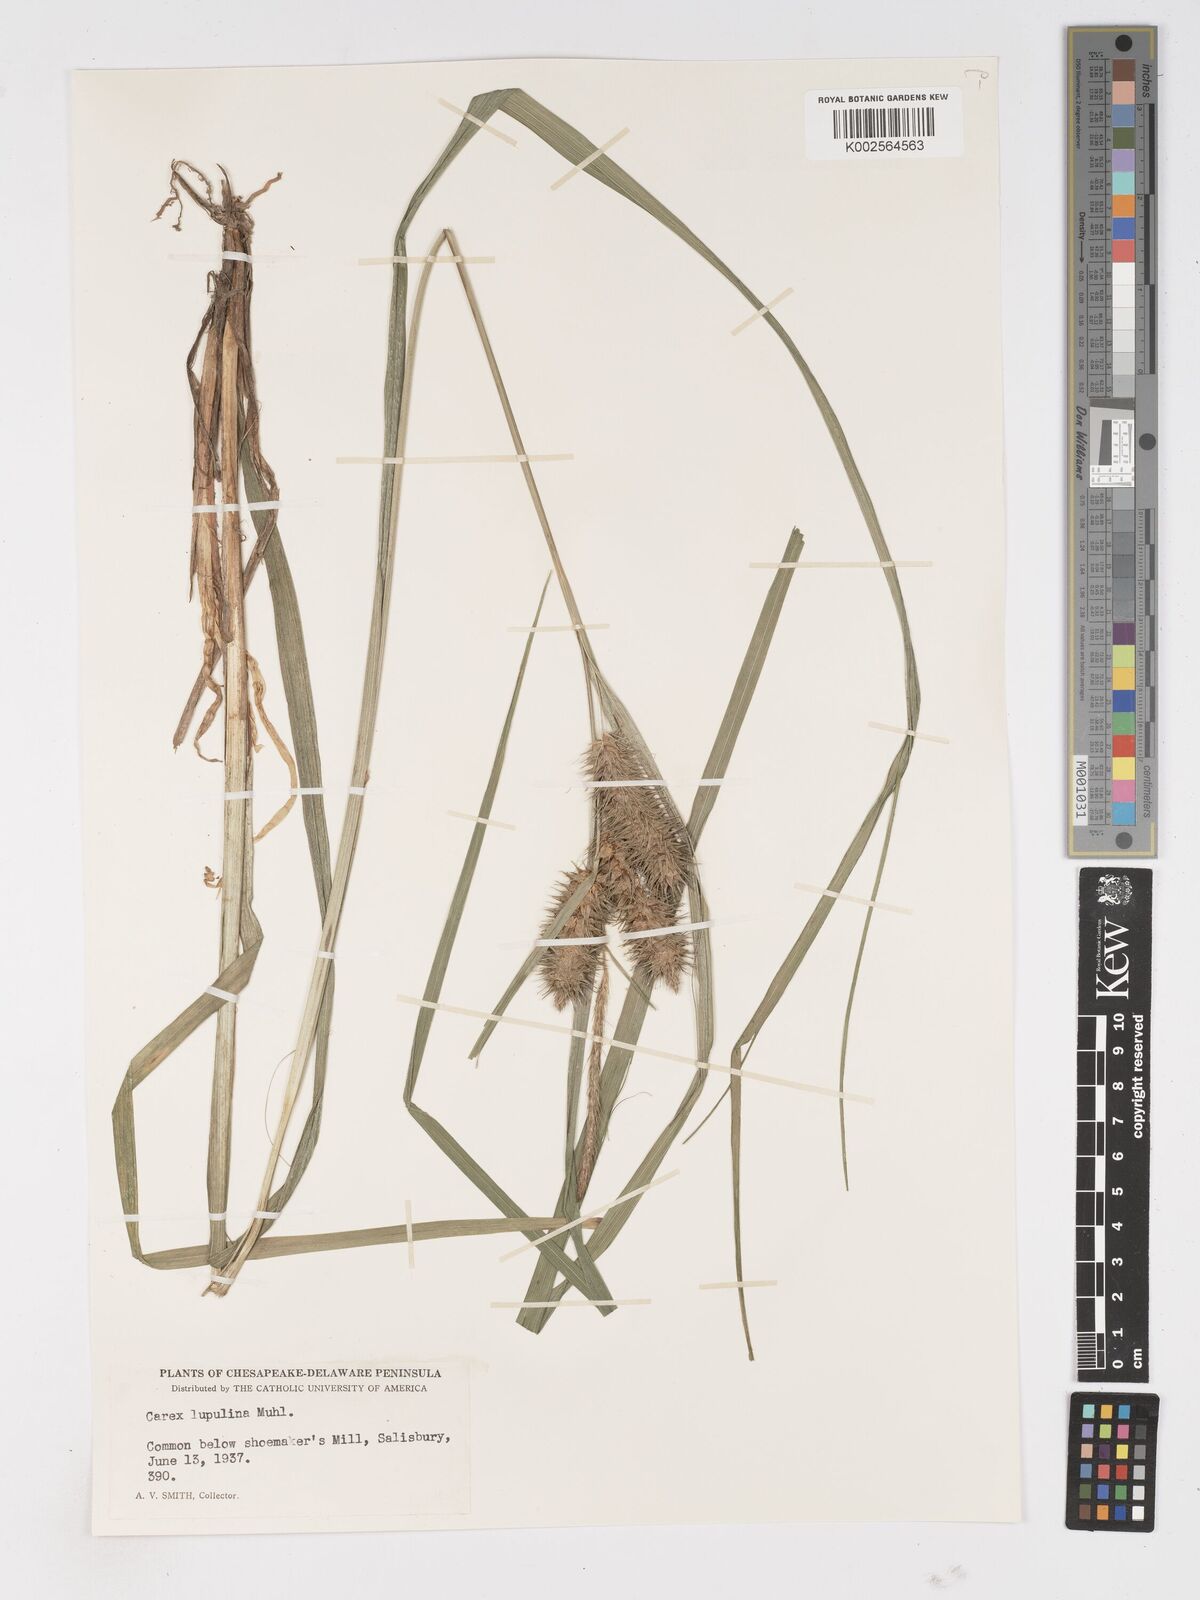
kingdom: Plantae
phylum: Tracheophyta
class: Liliopsida
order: Poales
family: Cyperaceae
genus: Carex
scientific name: Carex lupulina
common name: Hop sedge
